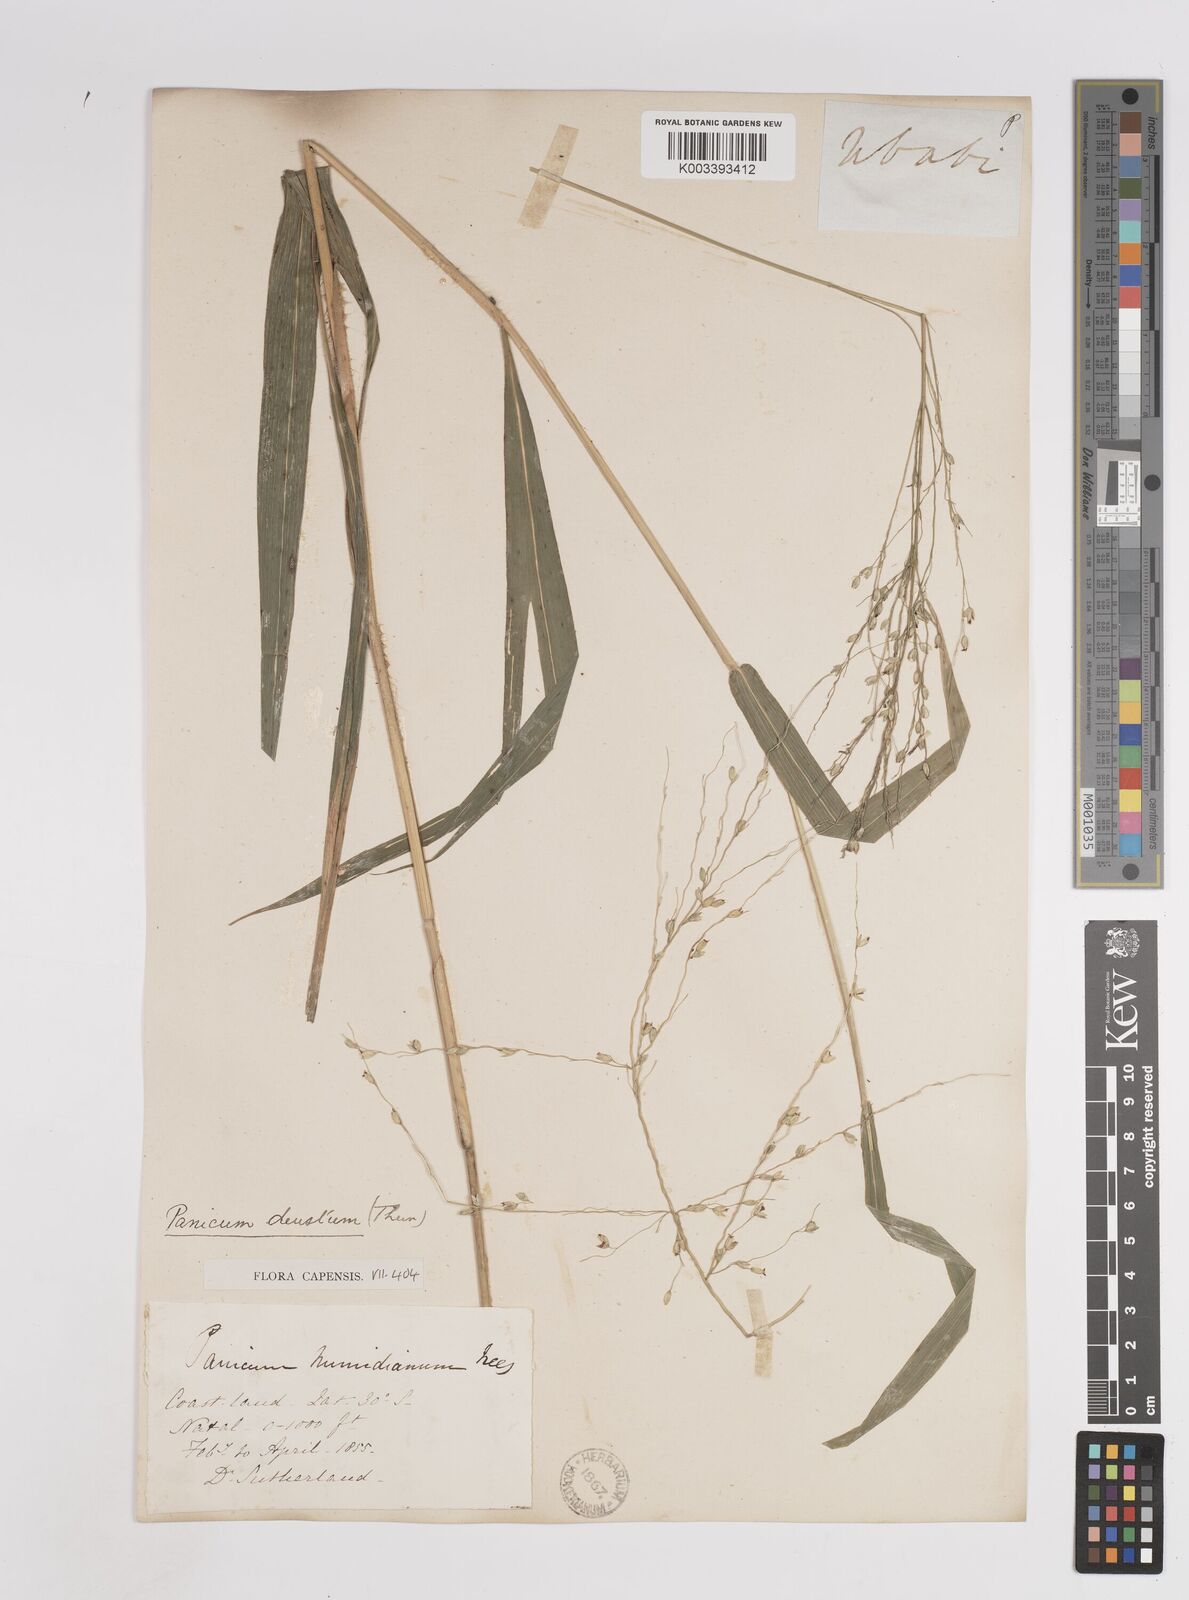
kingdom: Plantae
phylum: Tracheophyta
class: Liliopsida
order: Poales
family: Poaceae
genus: Panicum
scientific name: Panicum deustum
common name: Reed panicum
